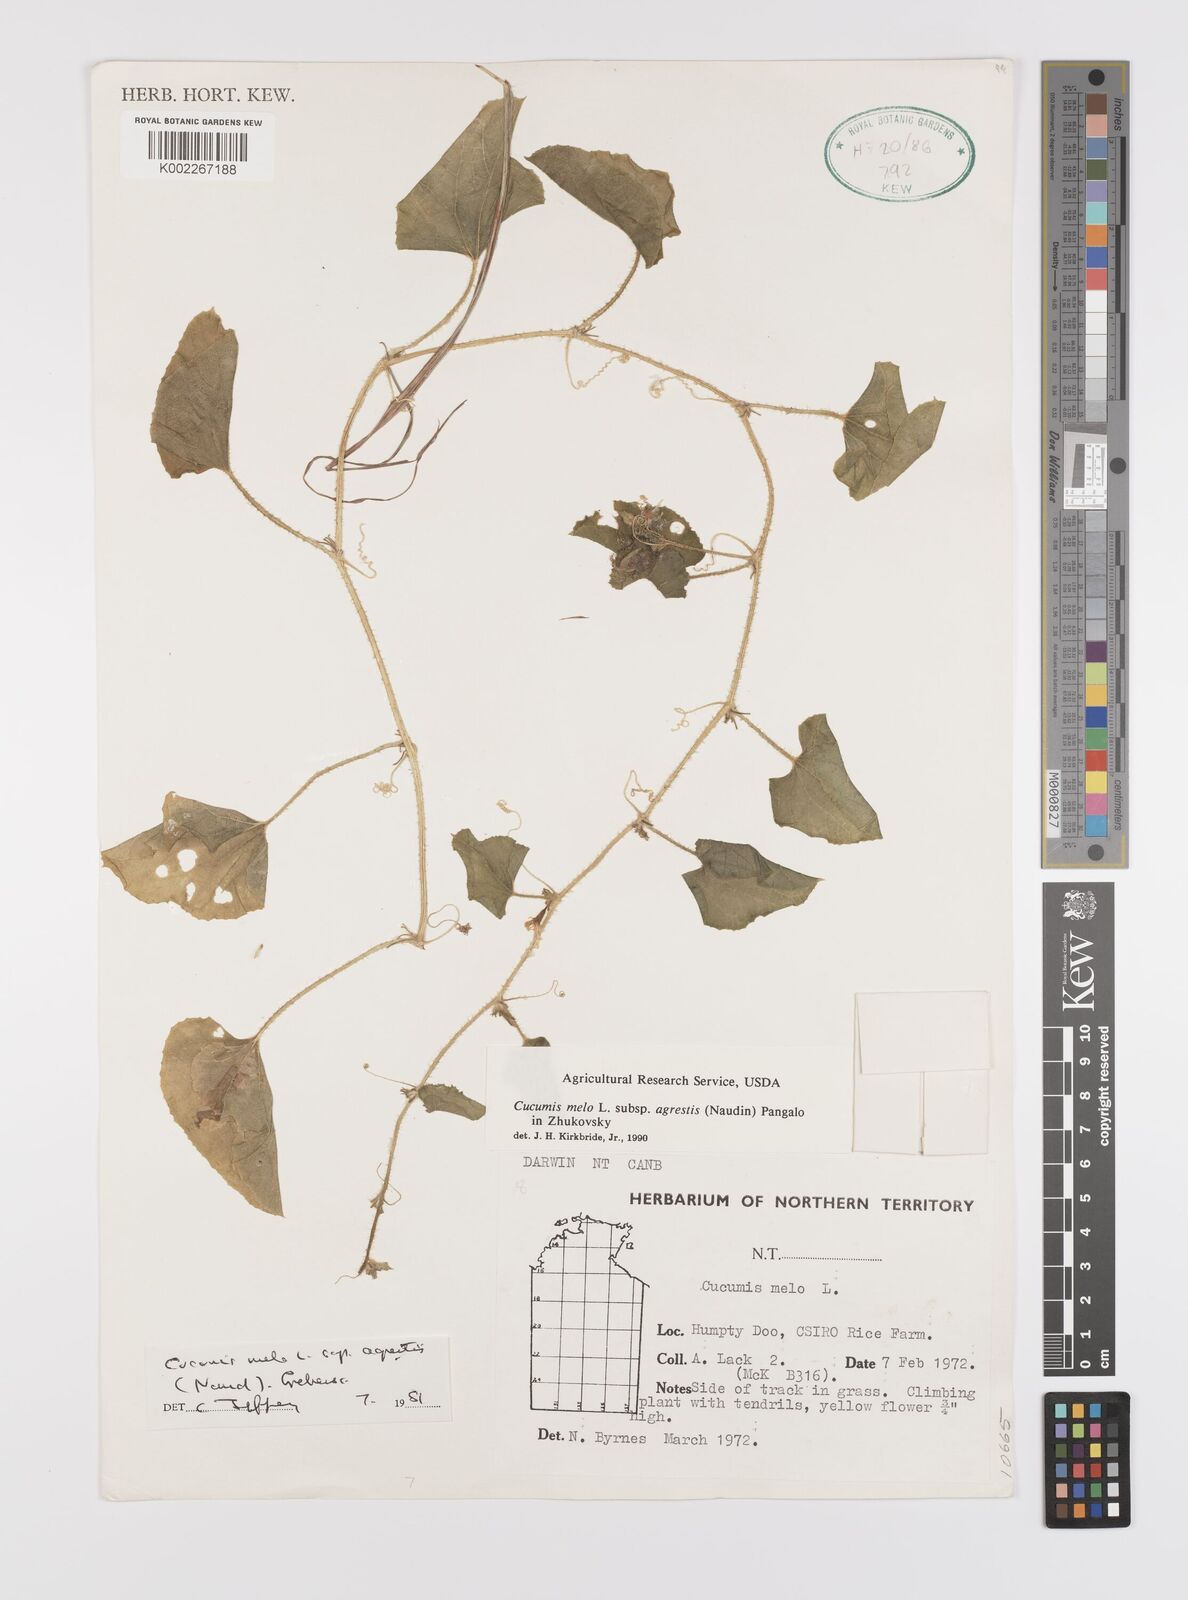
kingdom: Plantae
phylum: Tracheophyta
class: Magnoliopsida
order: Cucurbitales
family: Cucurbitaceae
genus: Cucumis
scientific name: Cucumis melo
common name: Melon
